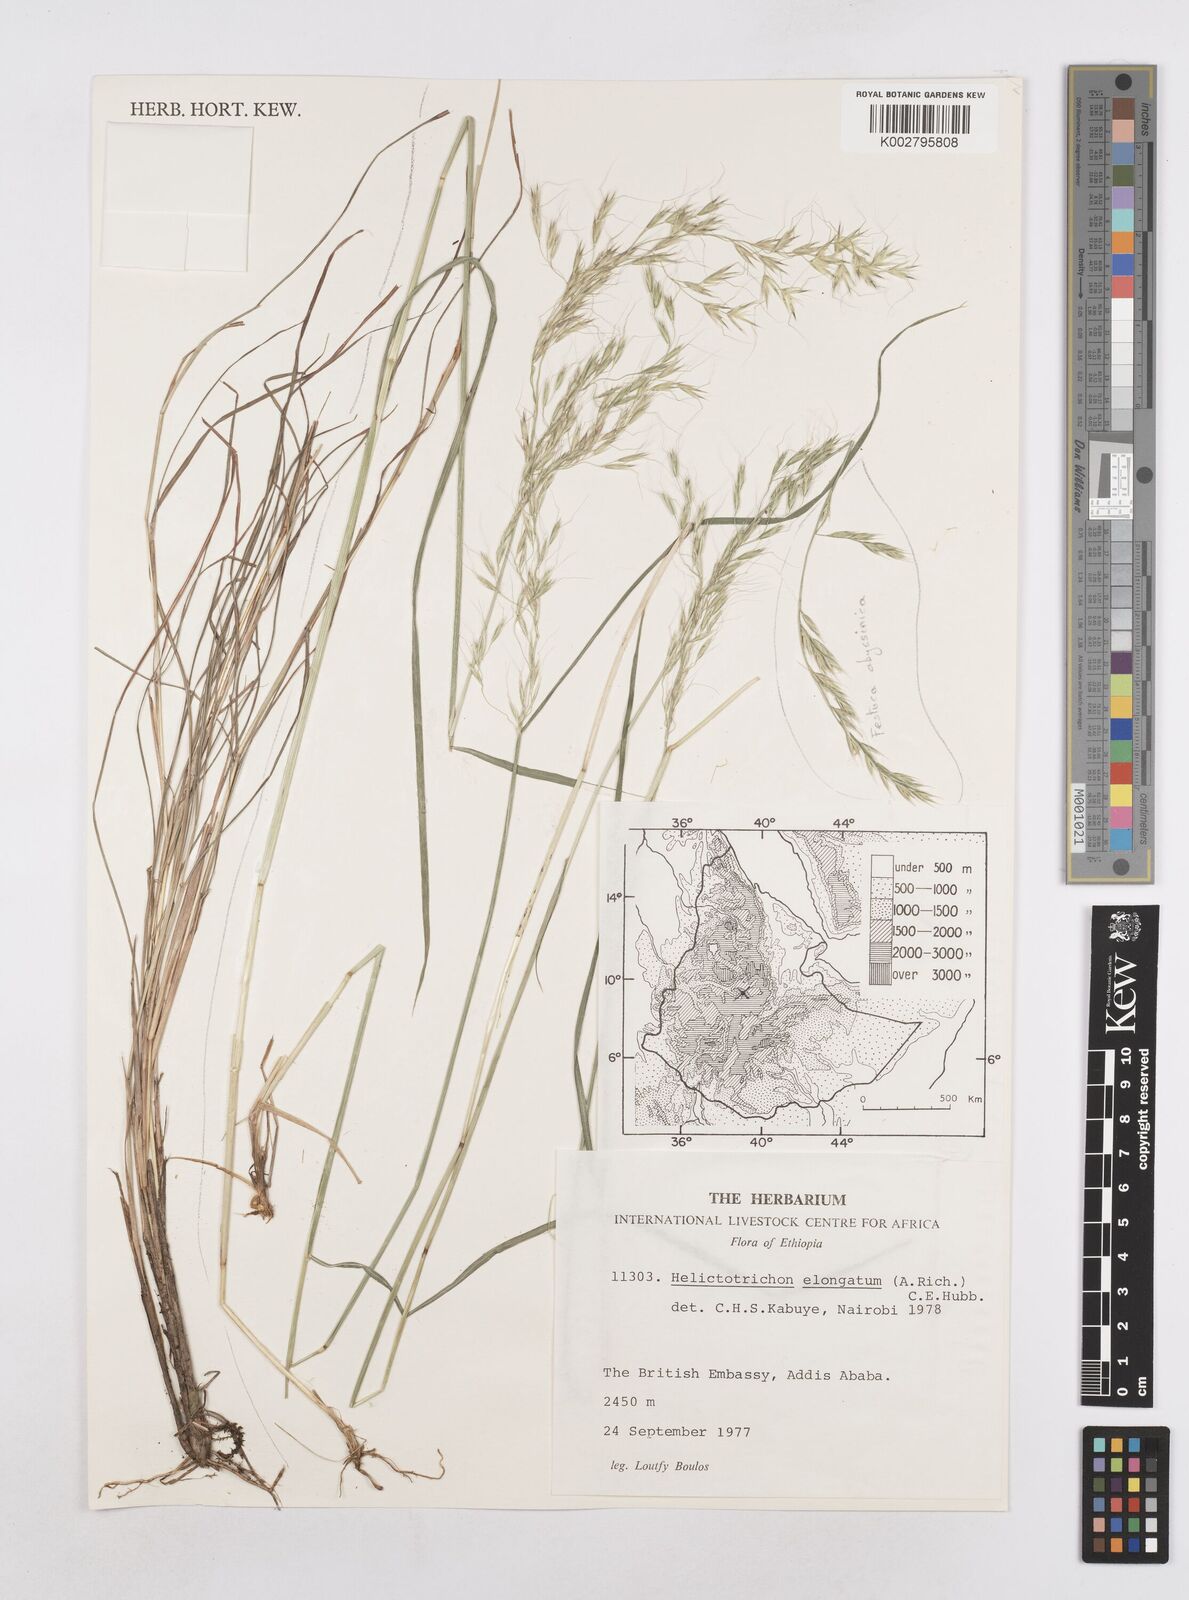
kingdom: Plantae
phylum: Tracheophyta
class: Liliopsida
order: Poales
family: Poaceae
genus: Trisetopsis
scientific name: Trisetopsis elongata
